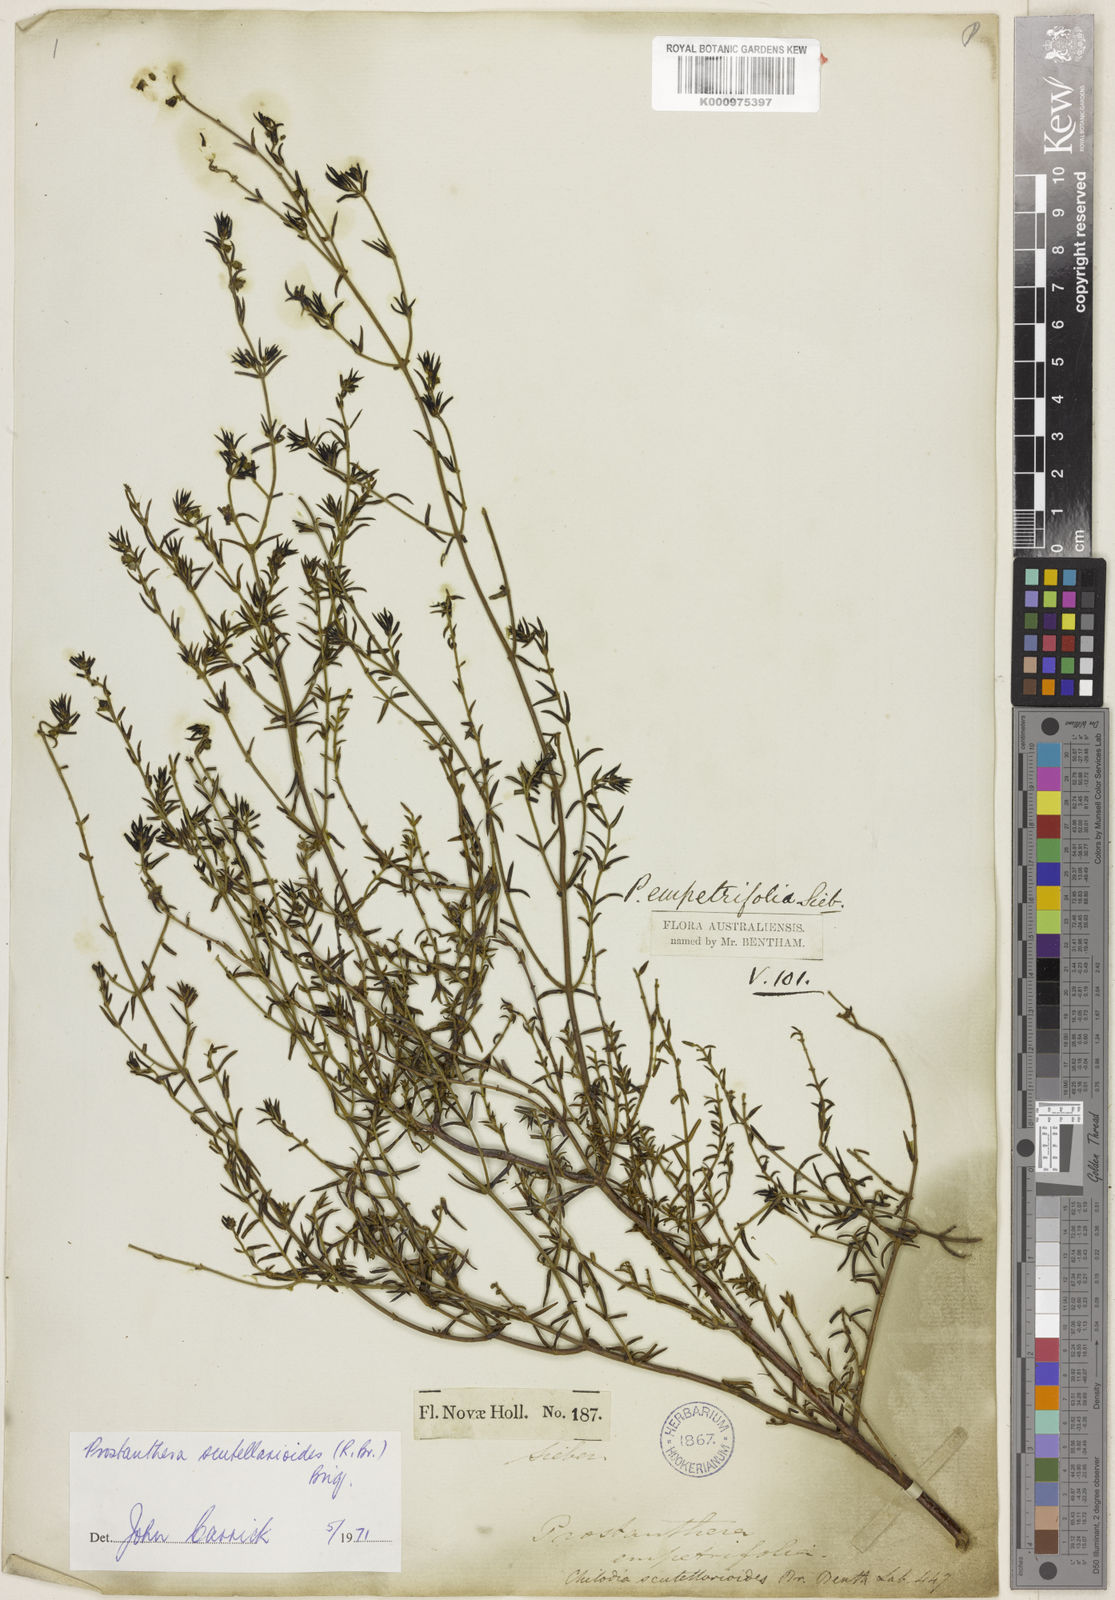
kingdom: Plantae
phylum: Tracheophyta
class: Magnoliopsida
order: Lamiales
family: Lamiaceae
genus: Prostanthera
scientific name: Prostanthera
